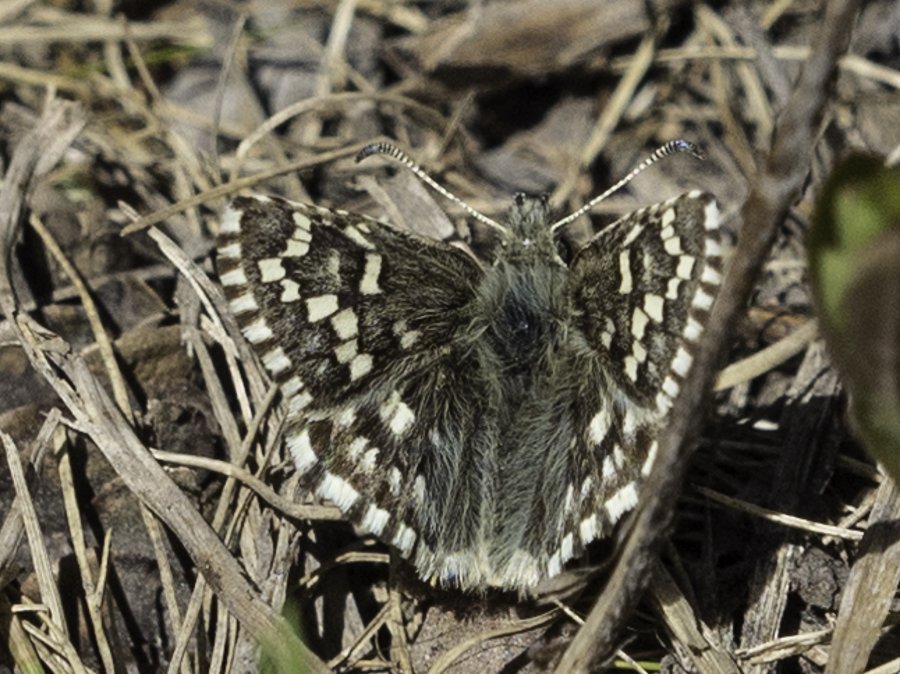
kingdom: Animalia
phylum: Arthropoda
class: Insecta
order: Lepidoptera
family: Hesperiidae
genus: Pyrgus
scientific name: Pyrgus centaureae
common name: Grizzled Skipper
